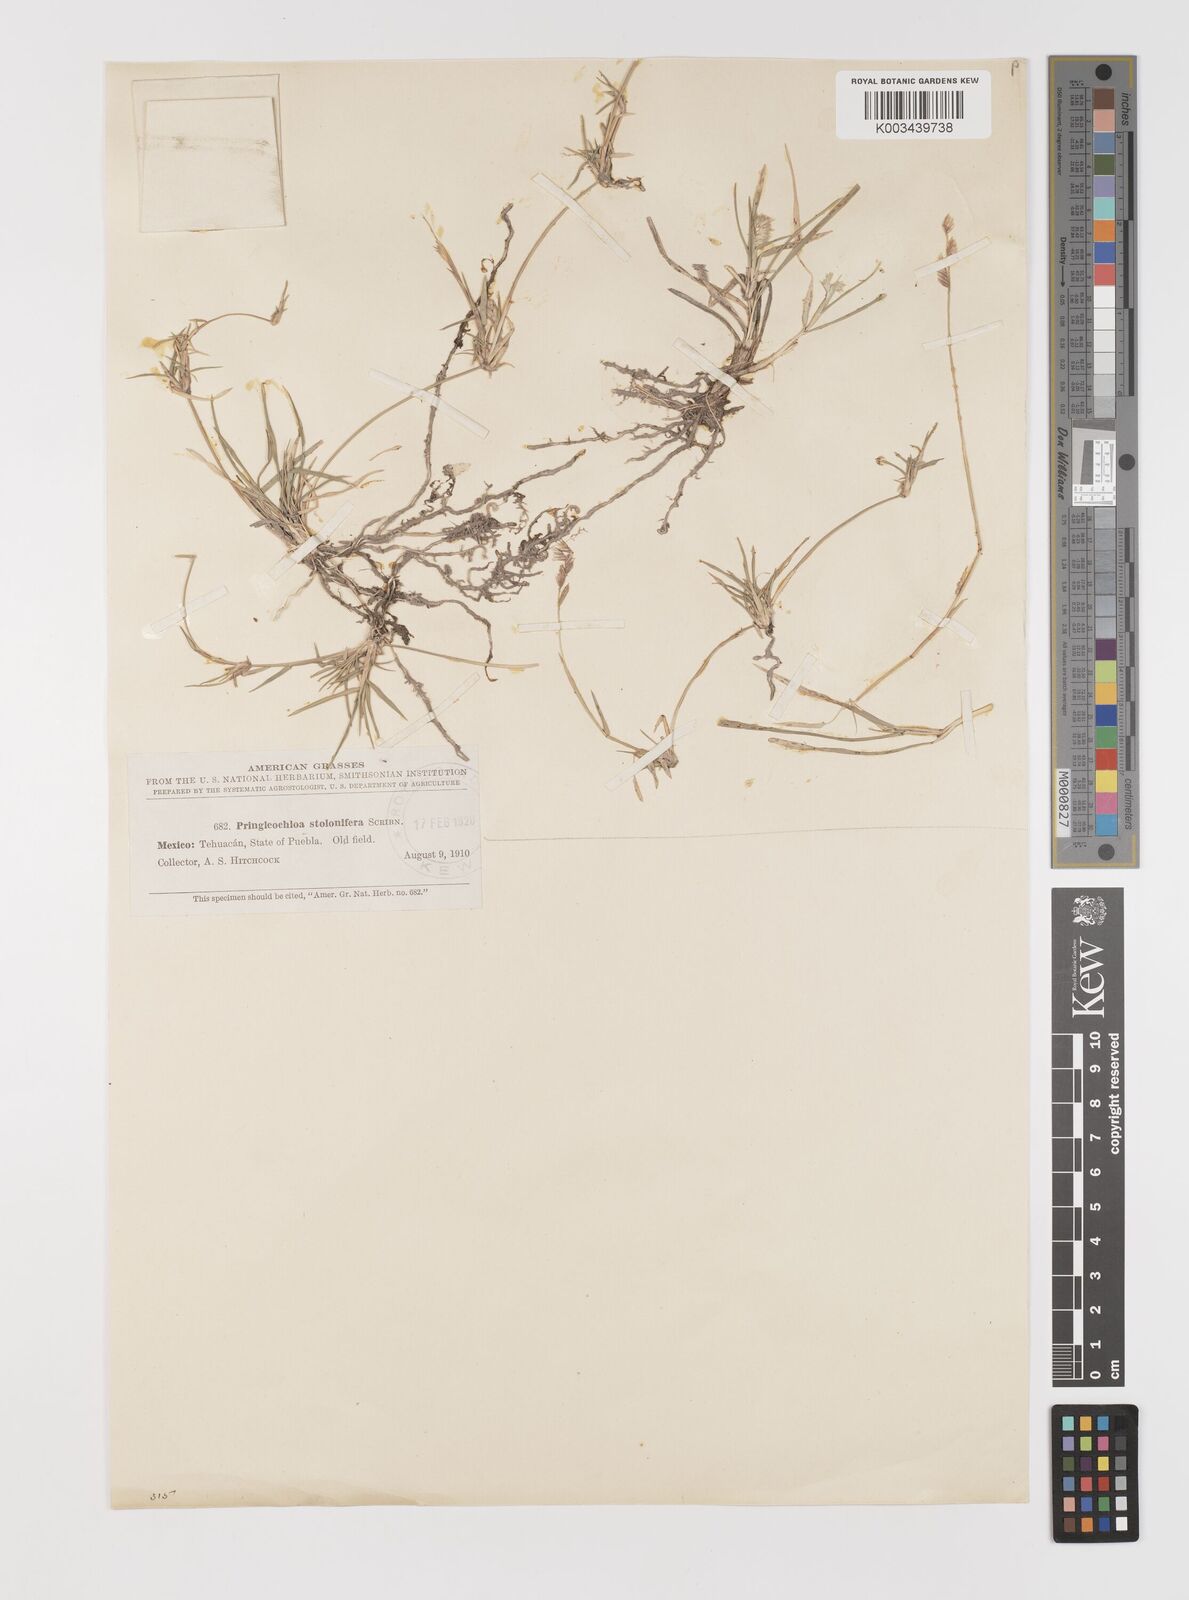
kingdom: Plantae
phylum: Tracheophyta
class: Liliopsida
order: Poales
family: Poaceae
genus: Bouteloua
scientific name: Bouteloua reederorum
